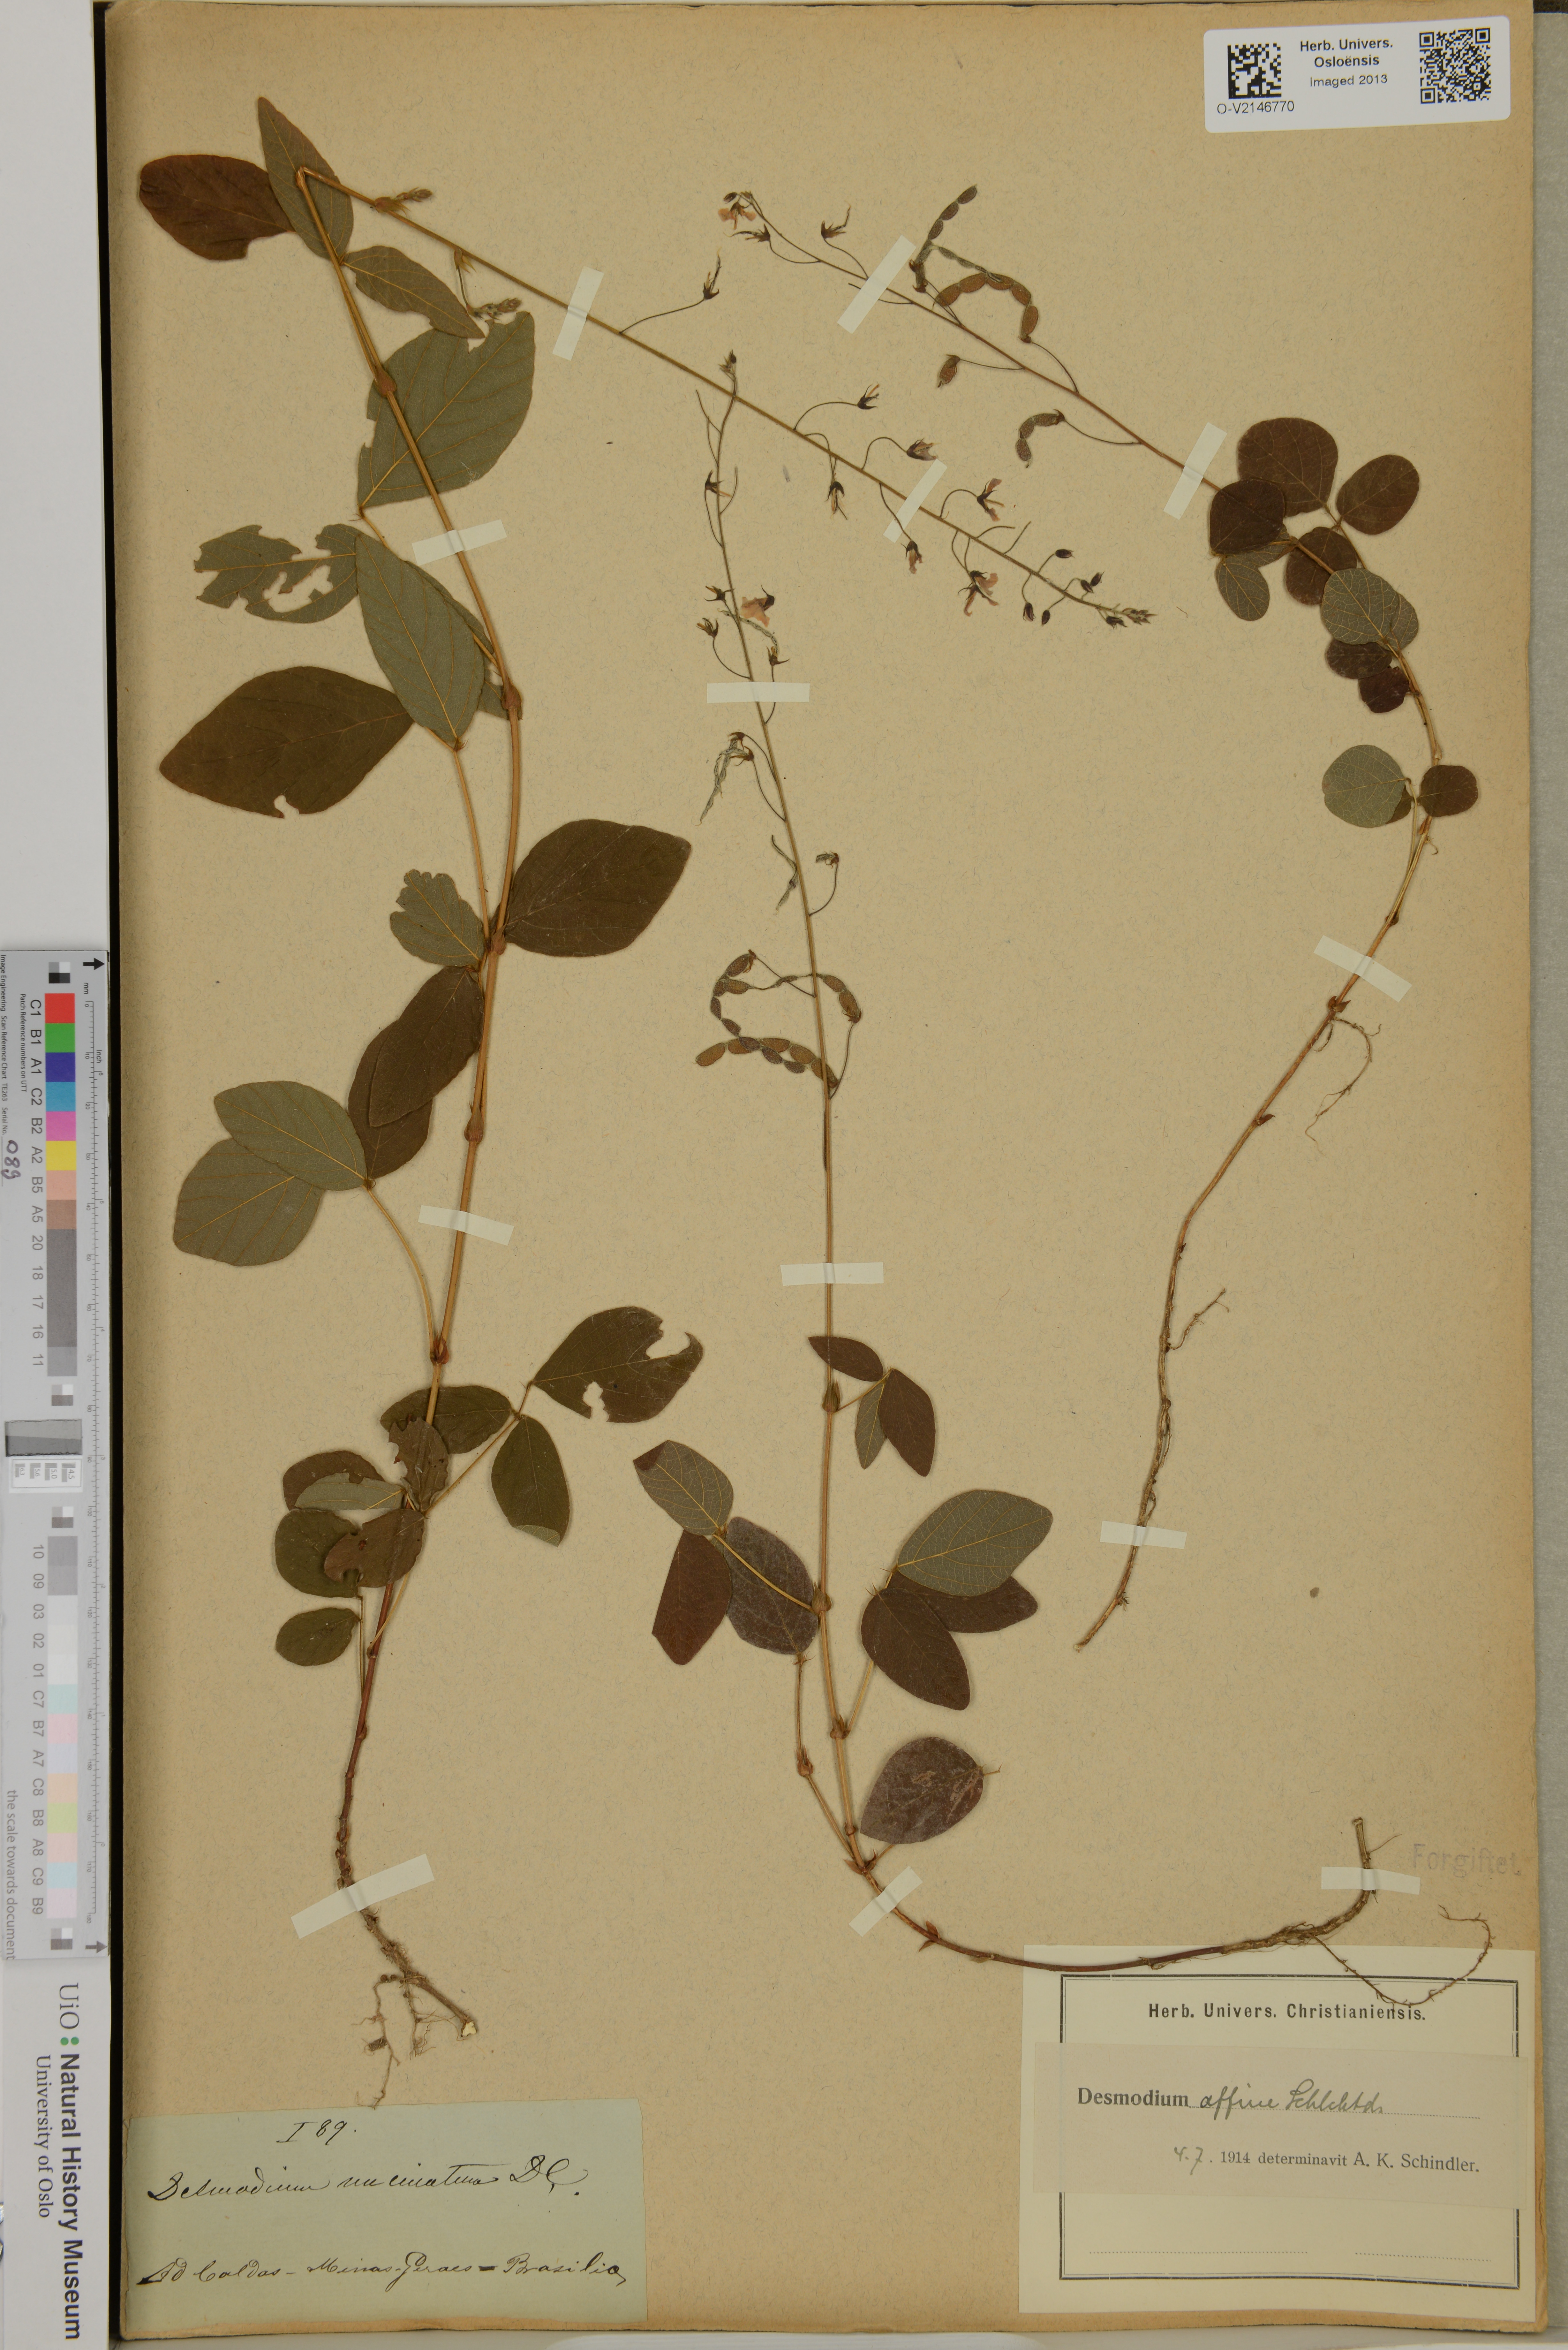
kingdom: Plantae
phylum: Tracheophyta
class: Magnoliopsida
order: Fabales
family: Fabaceae
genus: Desmodium
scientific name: Desmodium uncinatum
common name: Silverleaf desmodium
